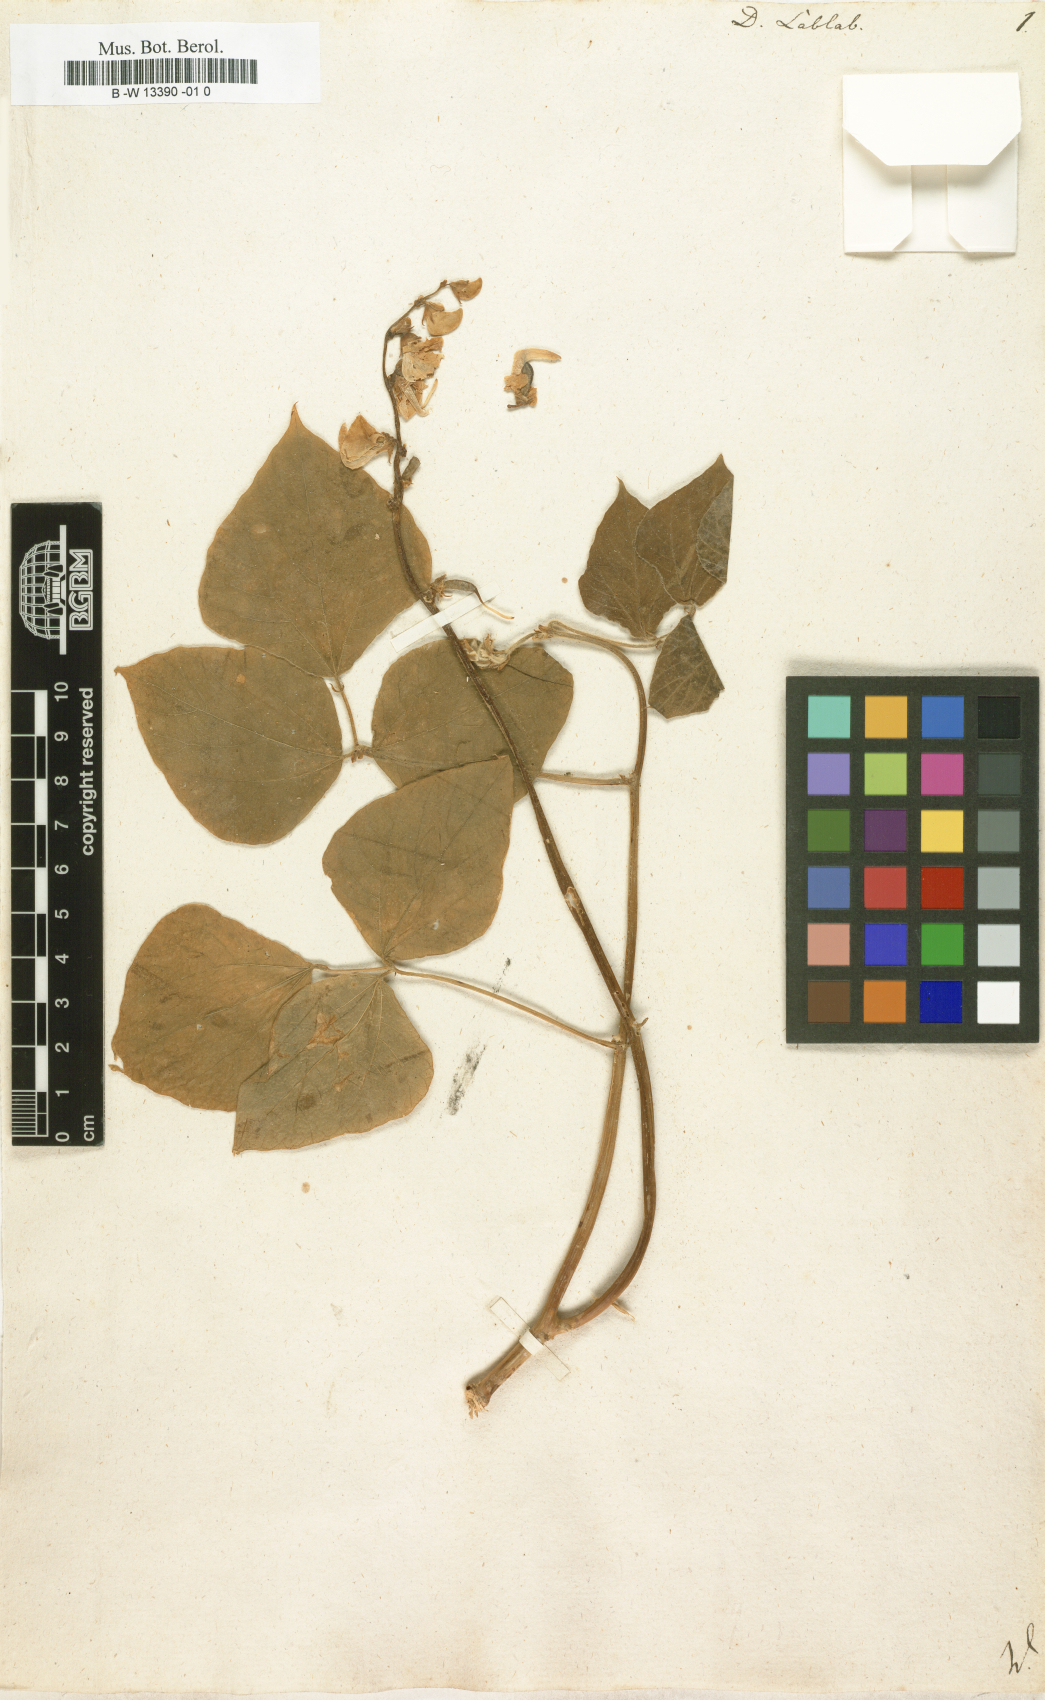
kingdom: Plantae
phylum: Tracheophyta
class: Magnoliopsida
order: Fabales
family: Fabaceae
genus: Lablab
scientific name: Lablab purpureus
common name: Lablab-bean
